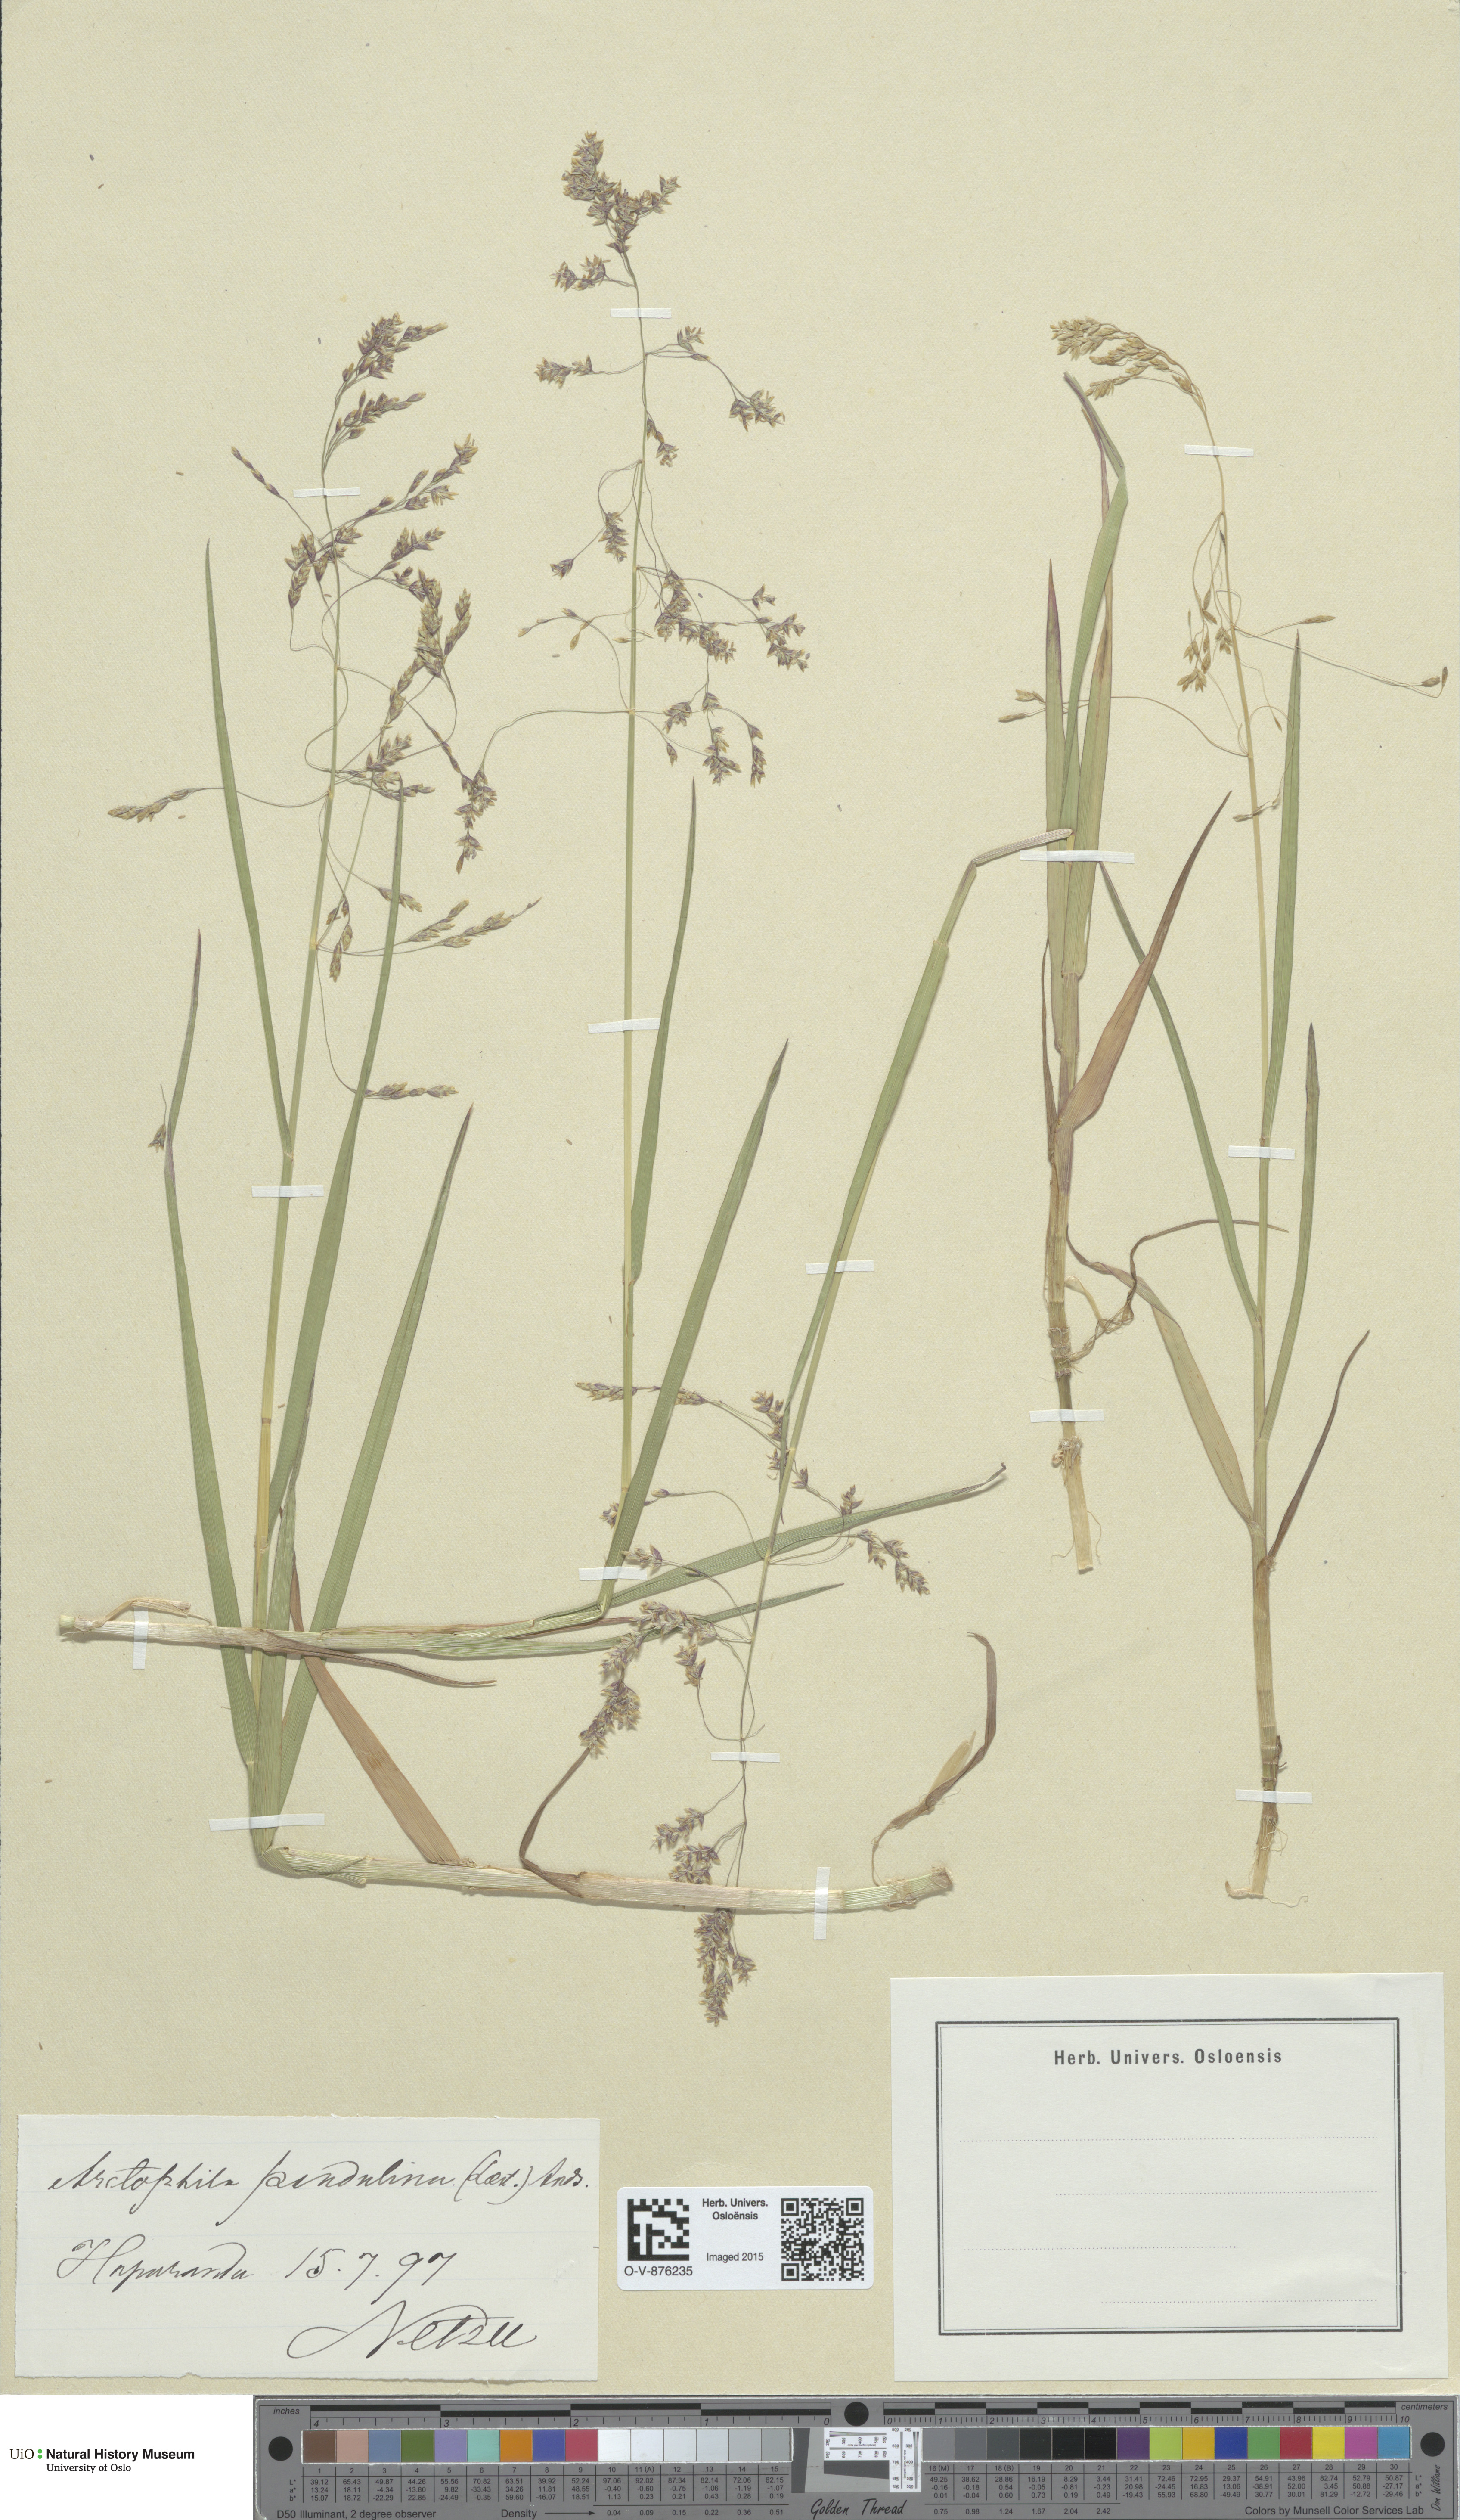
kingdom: Plantae
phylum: Tracheophyta
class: Liliopsida
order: Poales
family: Poaceae
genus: Dupontia
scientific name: Dupontia fulva
